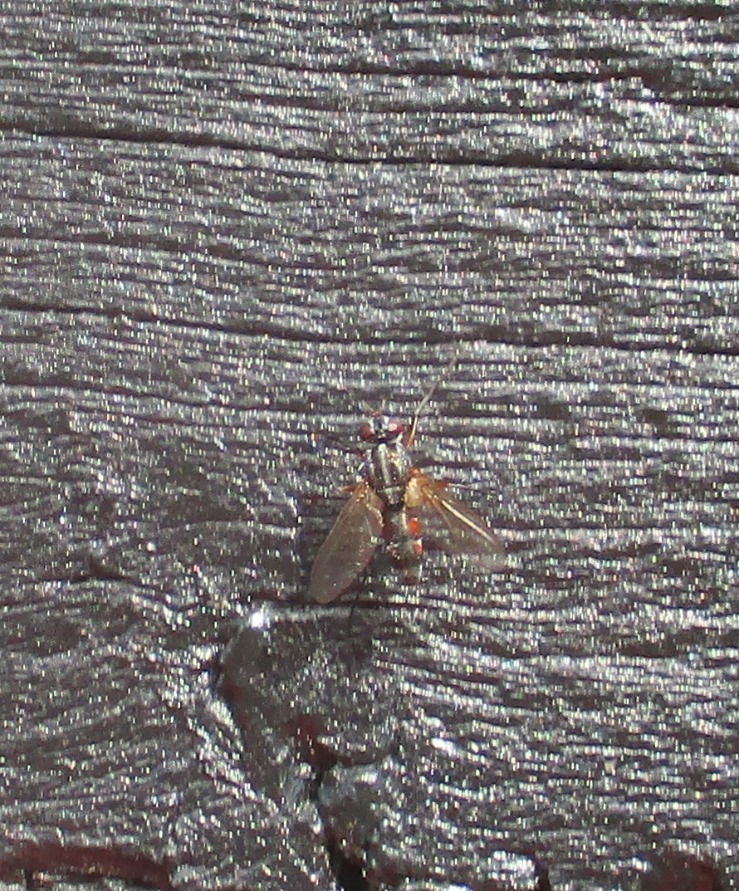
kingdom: Animalia
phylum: Arthropoda
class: Insecta
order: Diptera
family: Tachinidae
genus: Mintho
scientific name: Mintho rufiventris
